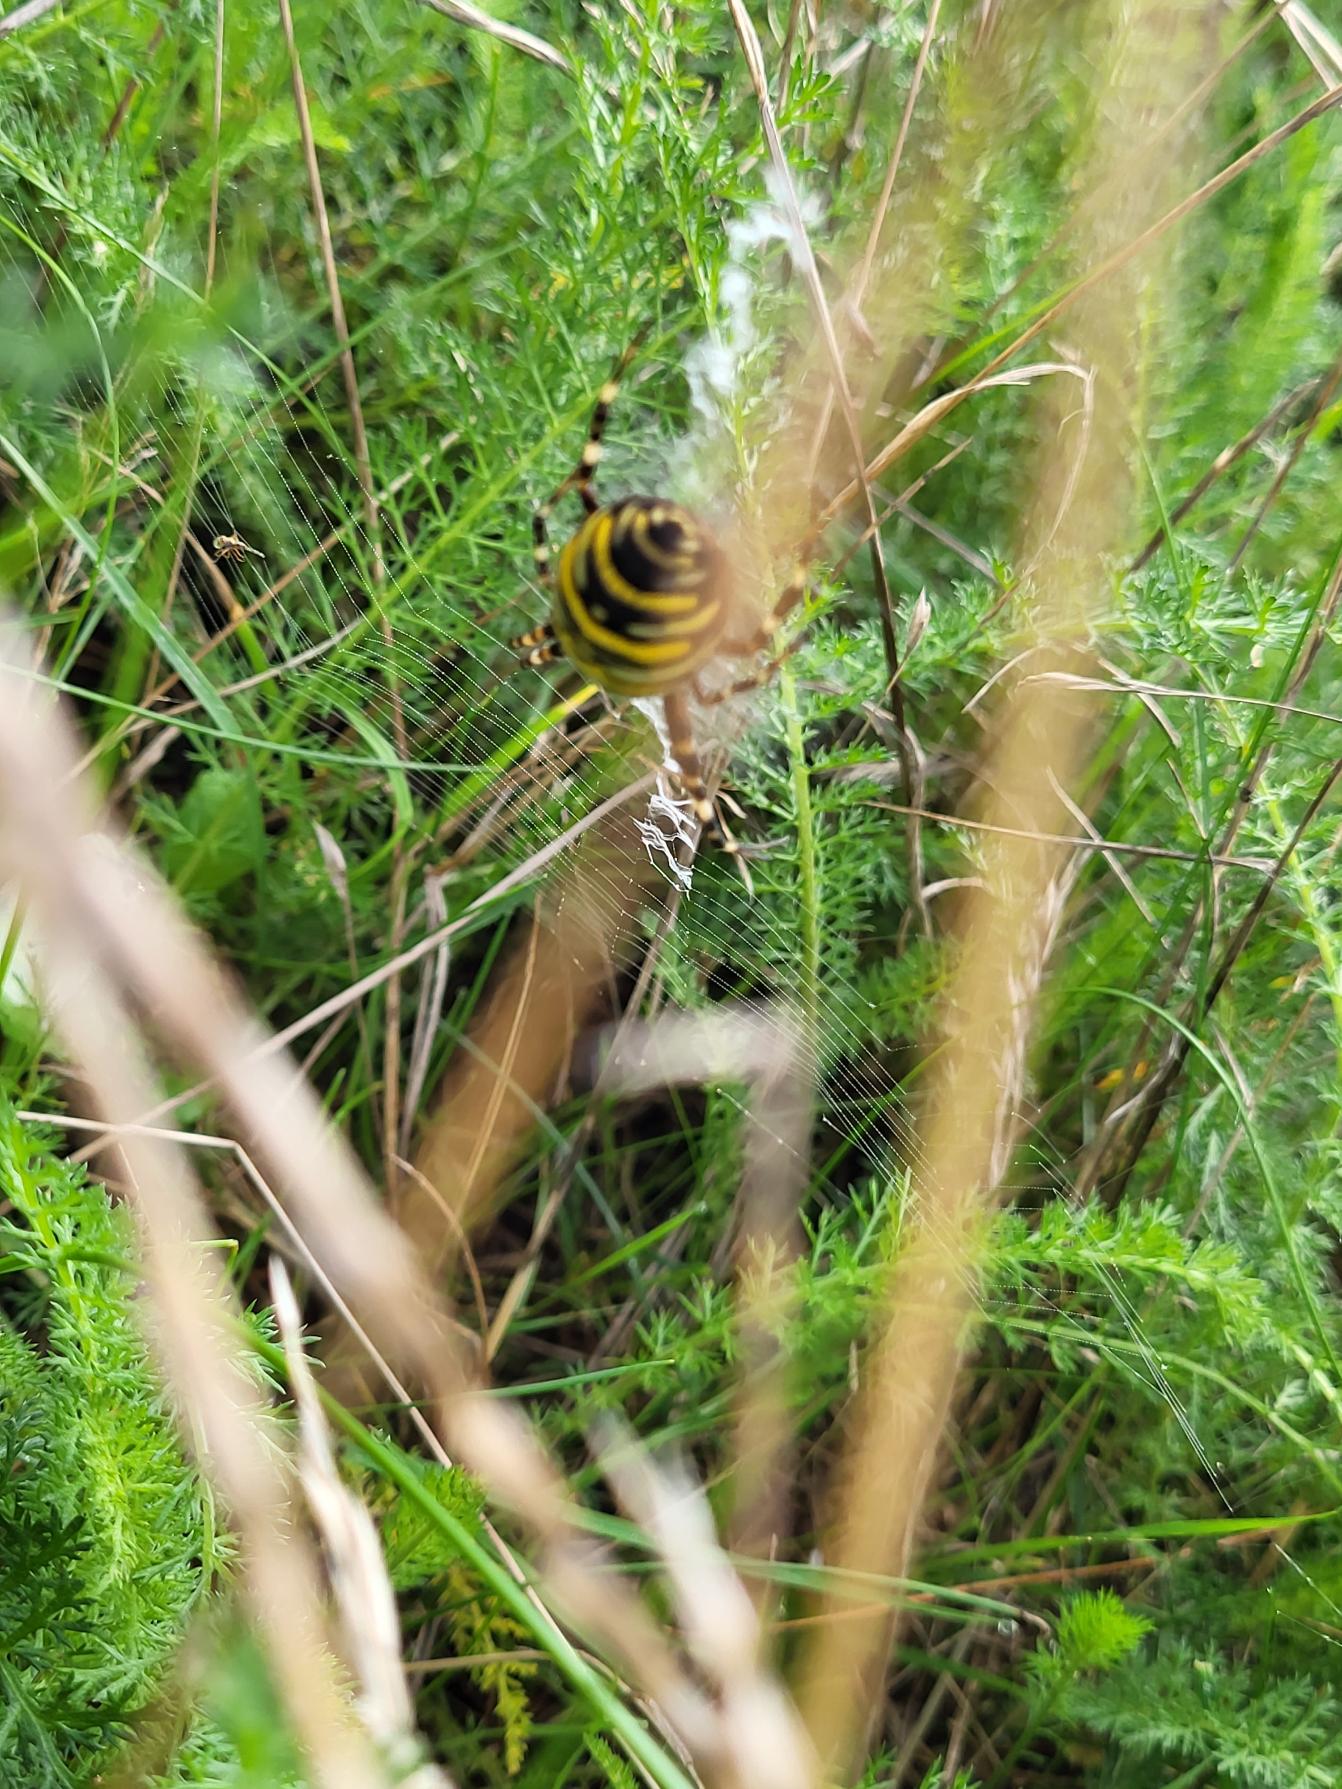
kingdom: Animalia
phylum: Arthropoda
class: Arachnida
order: Araneae
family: Araneidae
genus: Argiope
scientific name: Argiope bruennichi
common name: Hvepseedderkop
